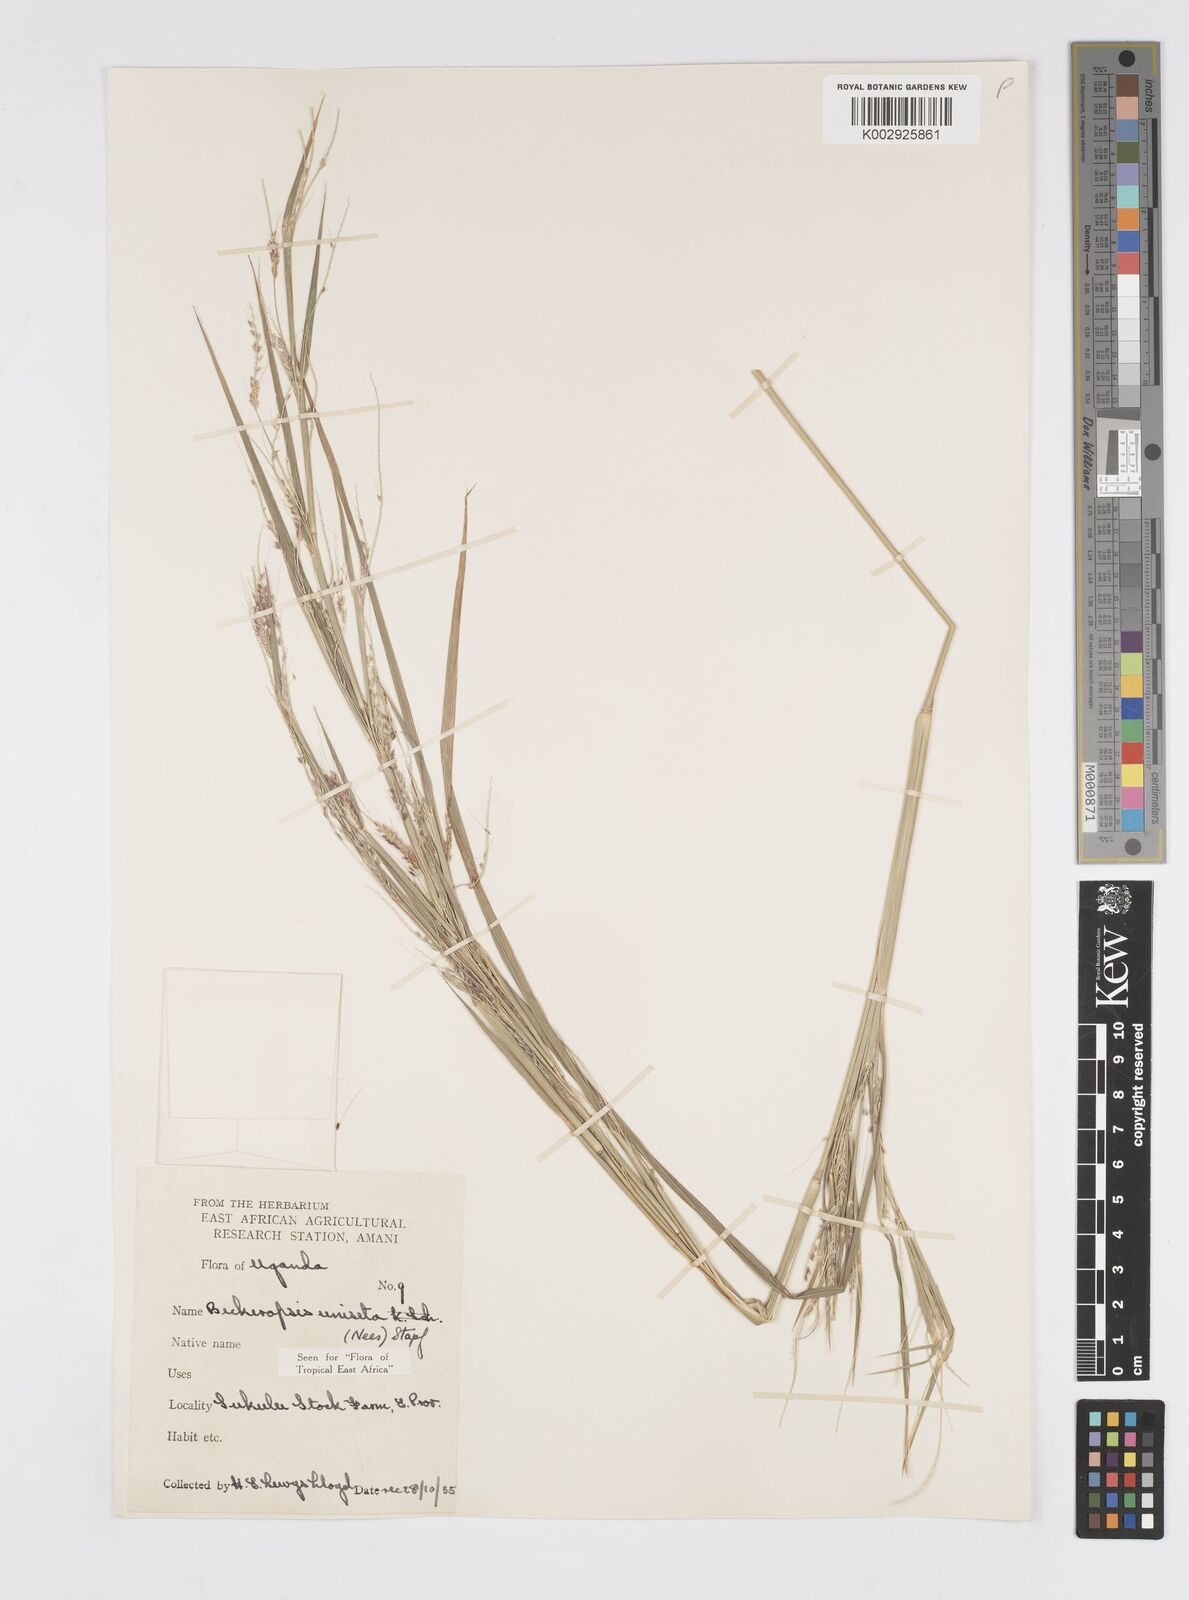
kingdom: Plantae
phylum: Tracheophyta
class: Liliopsida
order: Poales
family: Poaceae
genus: Cenchrus
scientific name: Cenchrus unisetus
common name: Natal grass
